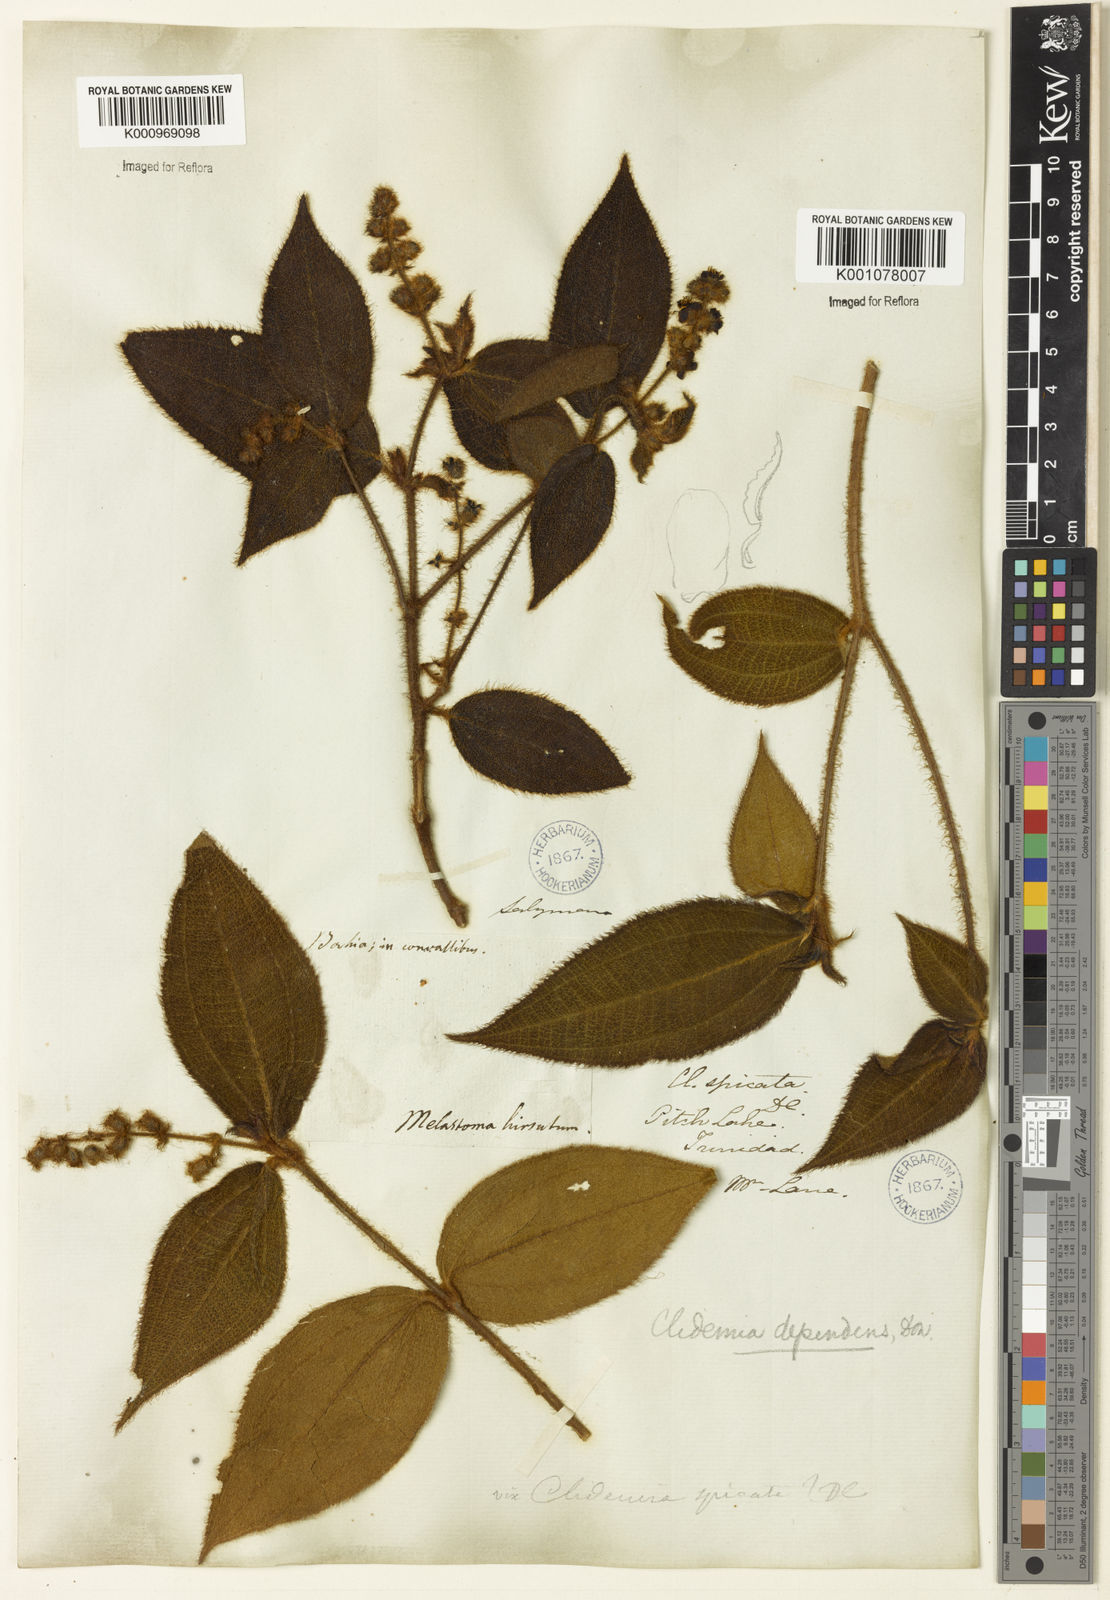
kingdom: Plantae
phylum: Tracheophyta
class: Magnoliopsida
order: Myrtales
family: Melastomataceae
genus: Miconia
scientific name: Miconia dependens
